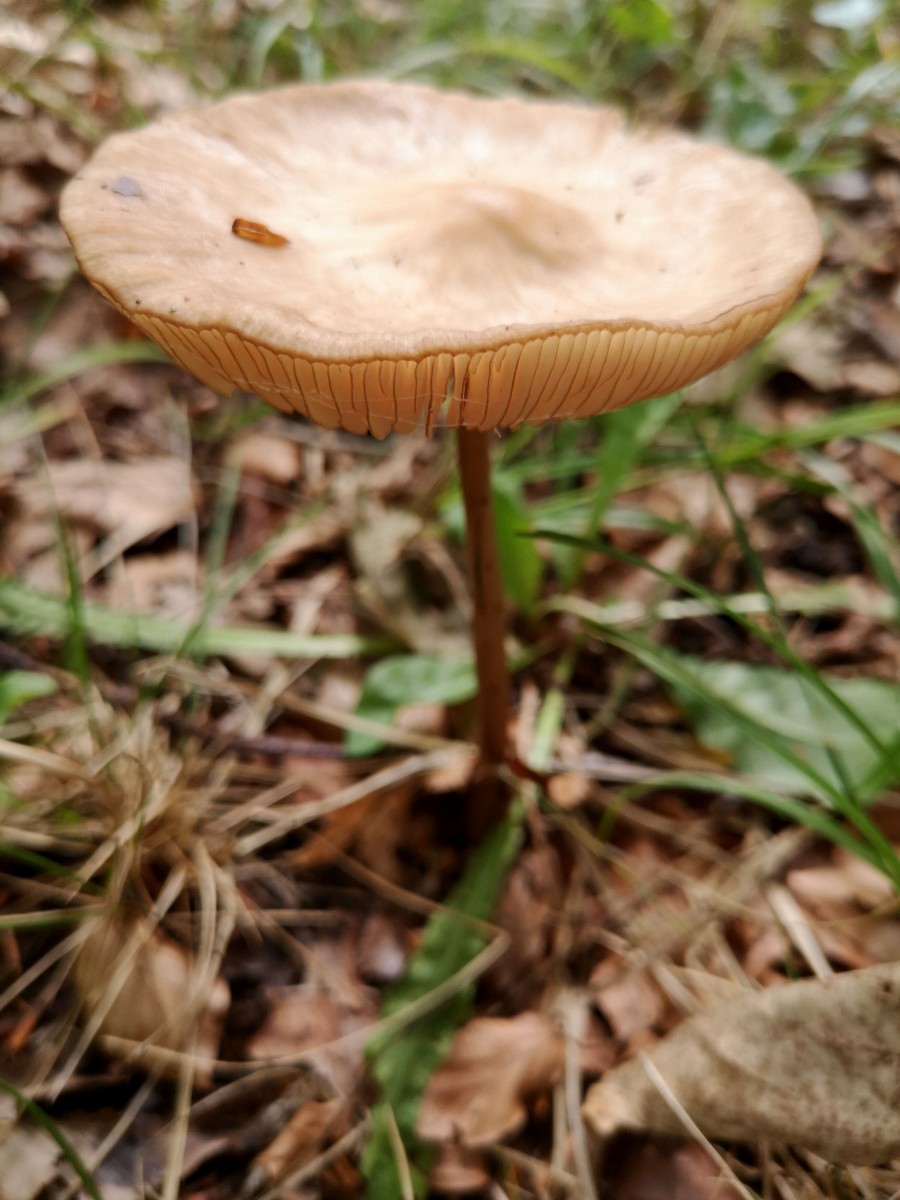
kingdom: Fungi
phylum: Basidiomycota
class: Agaricomycetes
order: Agaricales
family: Physalacriaceae
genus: Hymenopellis
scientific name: Hymenopellis radicata
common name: almindelig pælerodshat
